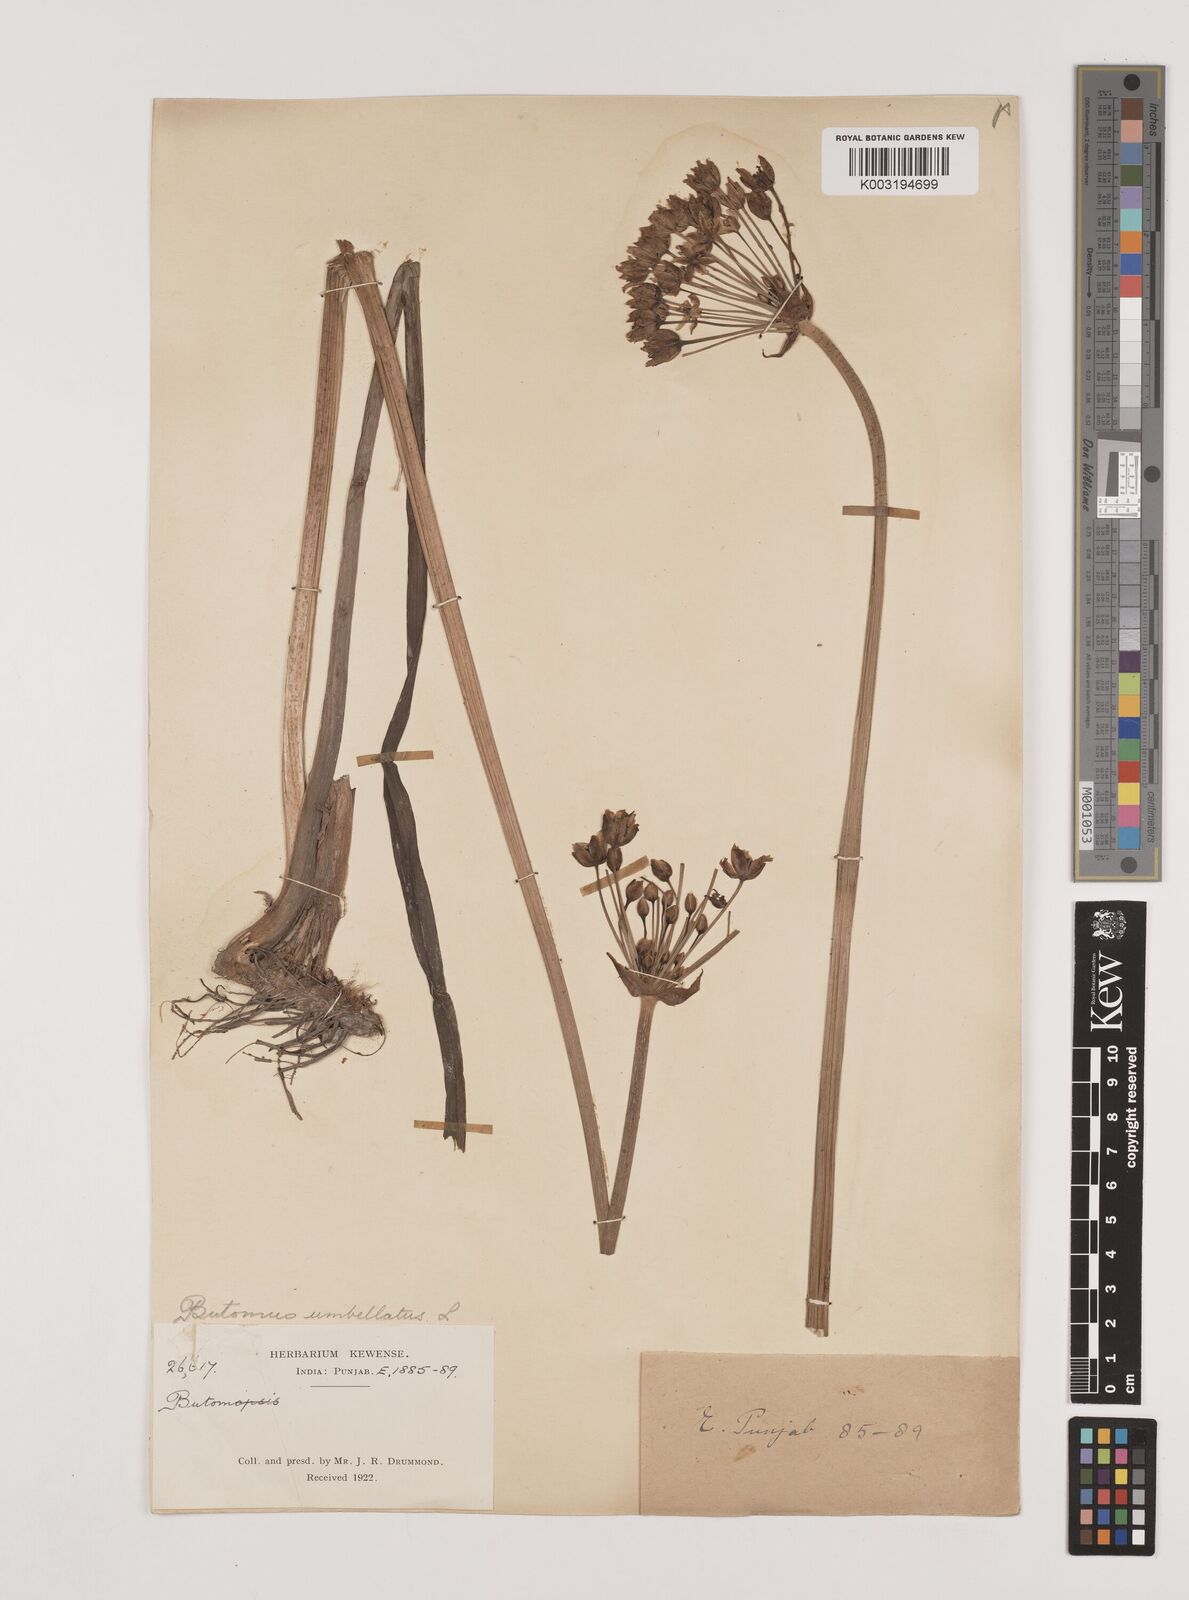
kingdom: Plantae
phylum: Tracheophyta
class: Liliopsida
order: Alismatales
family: Butomaceae
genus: Butomus
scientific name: Butomus umbellatus
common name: Flowering-rush
